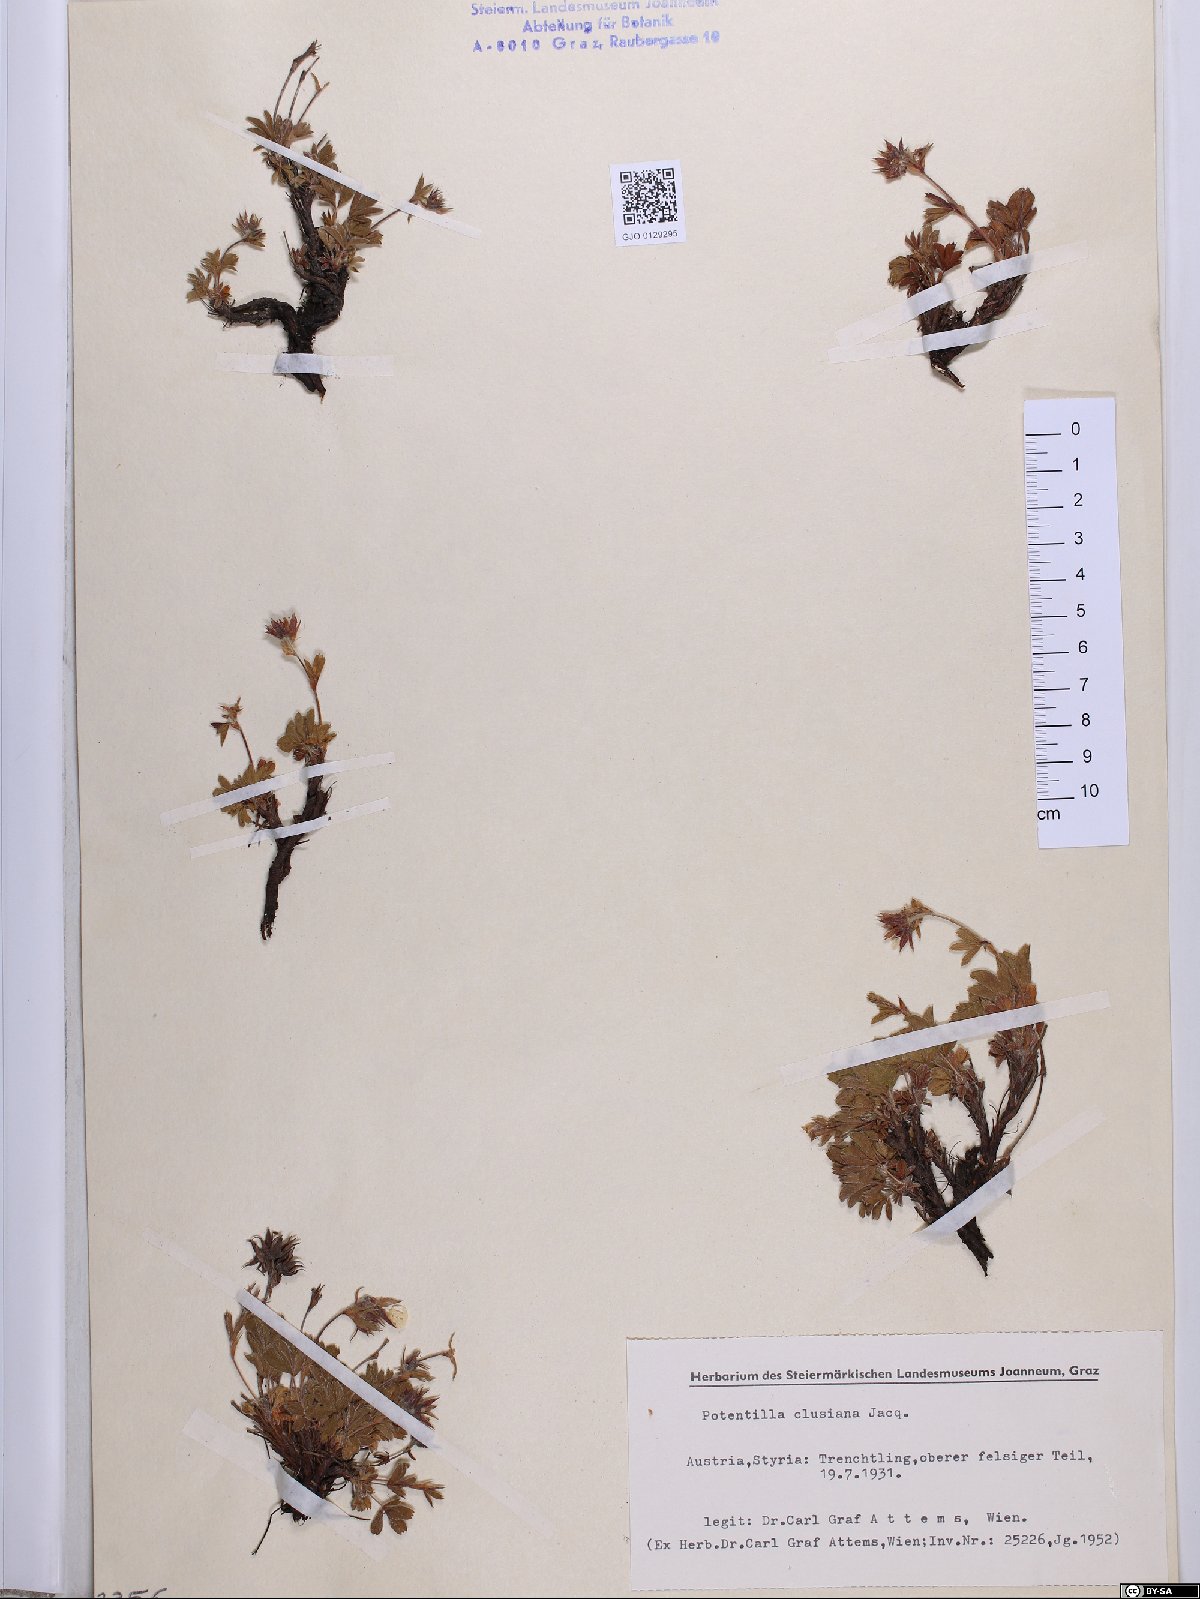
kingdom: Plantae
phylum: Tracheophyta
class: Magnoliopsida
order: Rosales
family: Rosaceae
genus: Potentilla
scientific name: Potentilla clusiana
